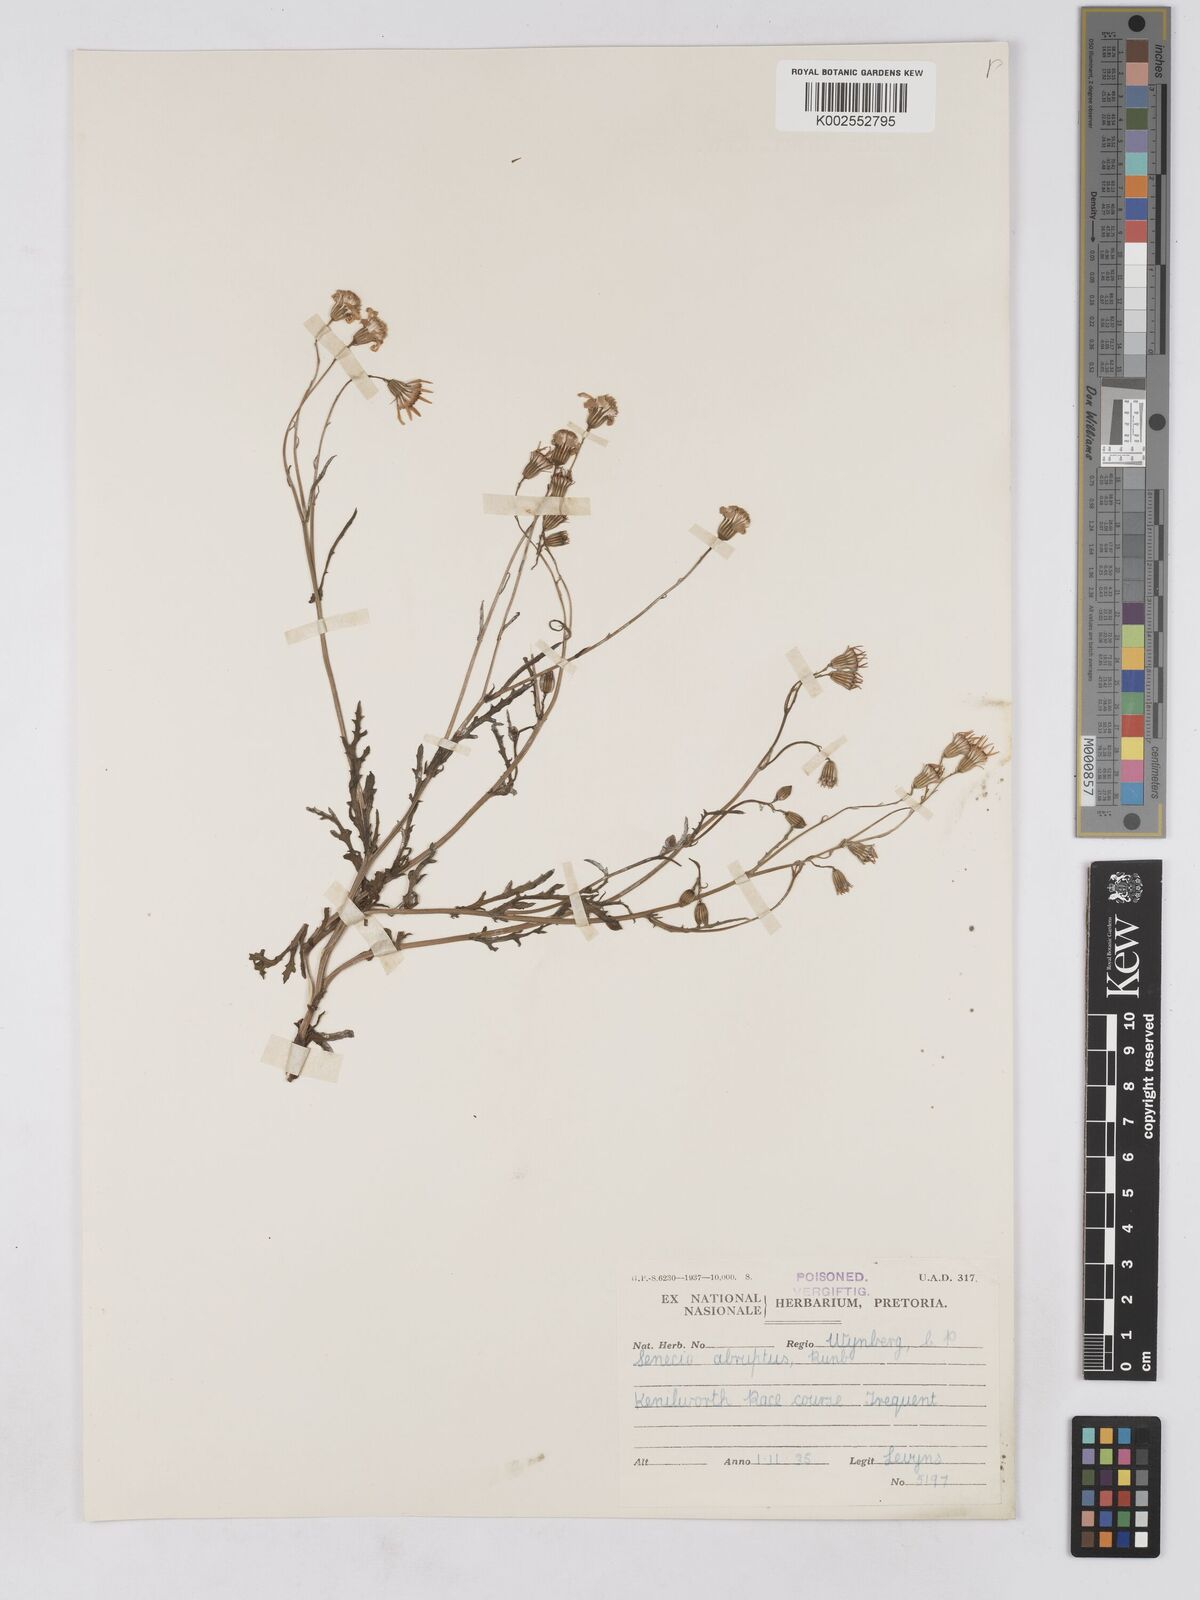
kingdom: Plantae
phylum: Tracheophyta
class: Magnoliopsida
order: Asterales
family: Asteraceae
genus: Senecio
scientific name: Senecio abruptus
